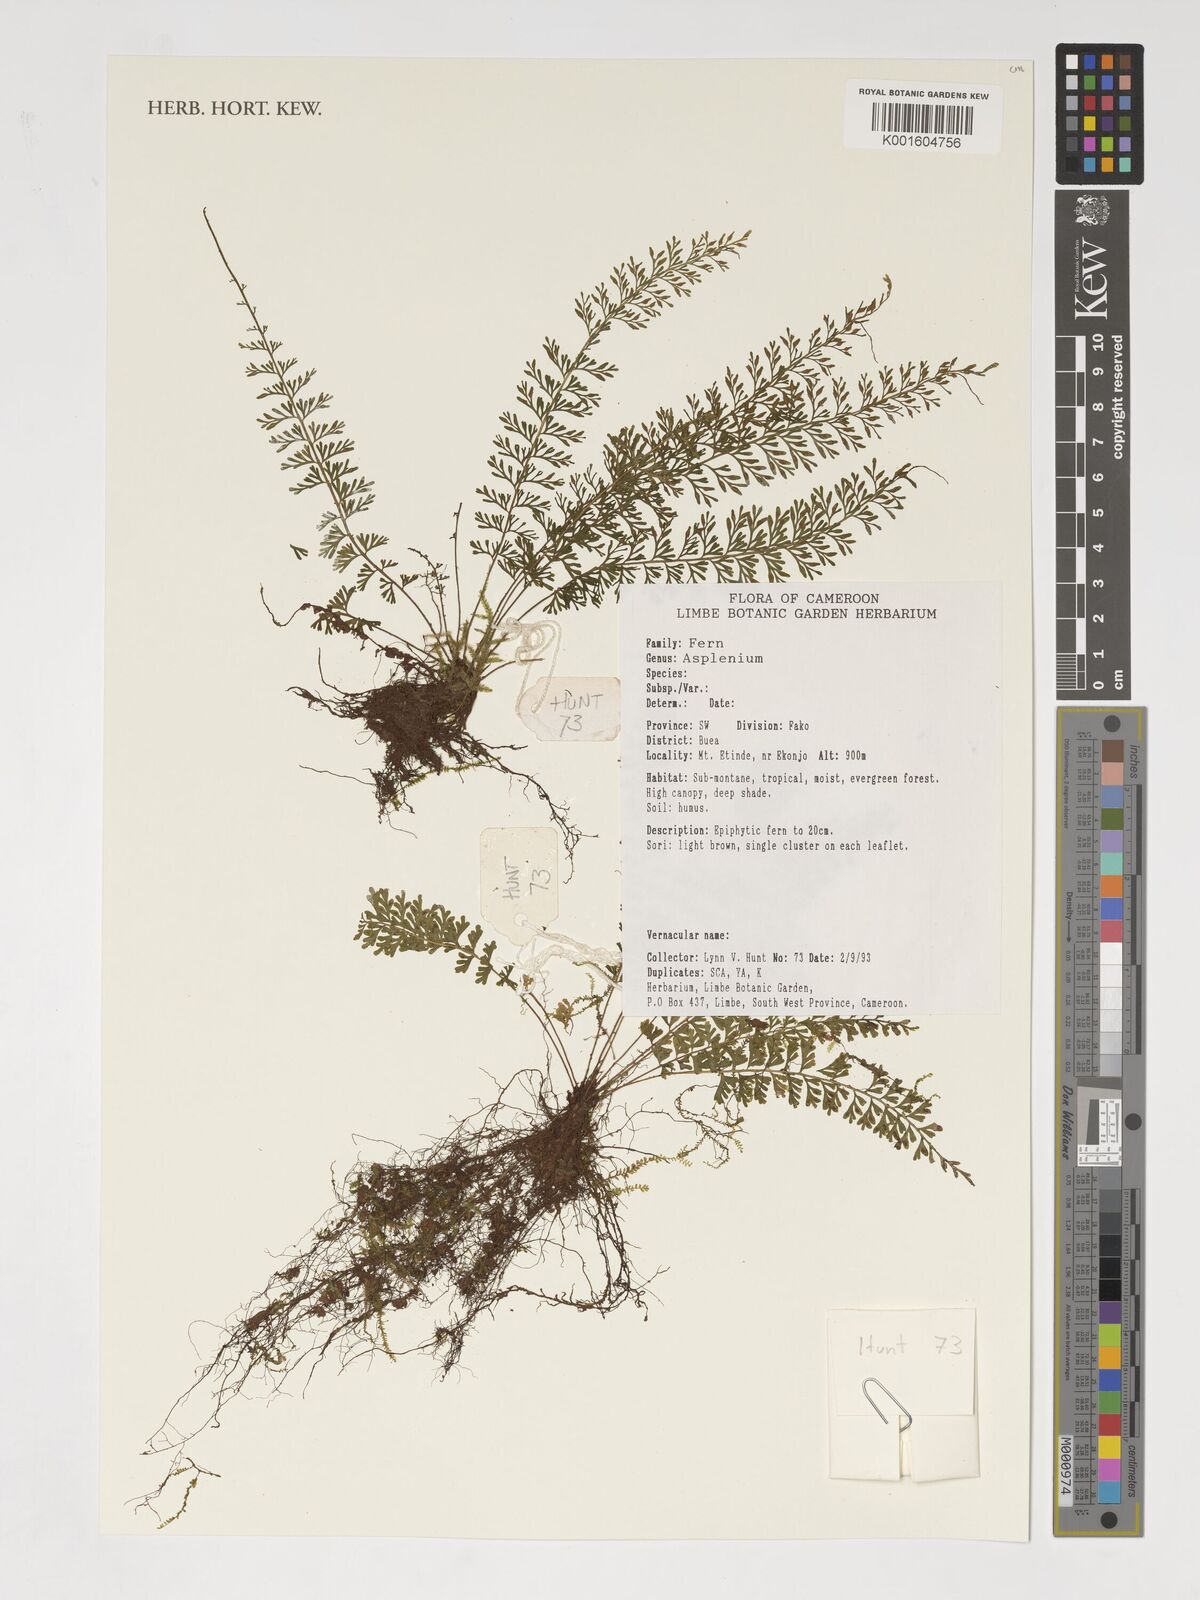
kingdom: Plantae
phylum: Tracheophyta
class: Polypodiopsida
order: Polypodiales
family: Aspleniaceae
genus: Asplenium
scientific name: Asplenium
